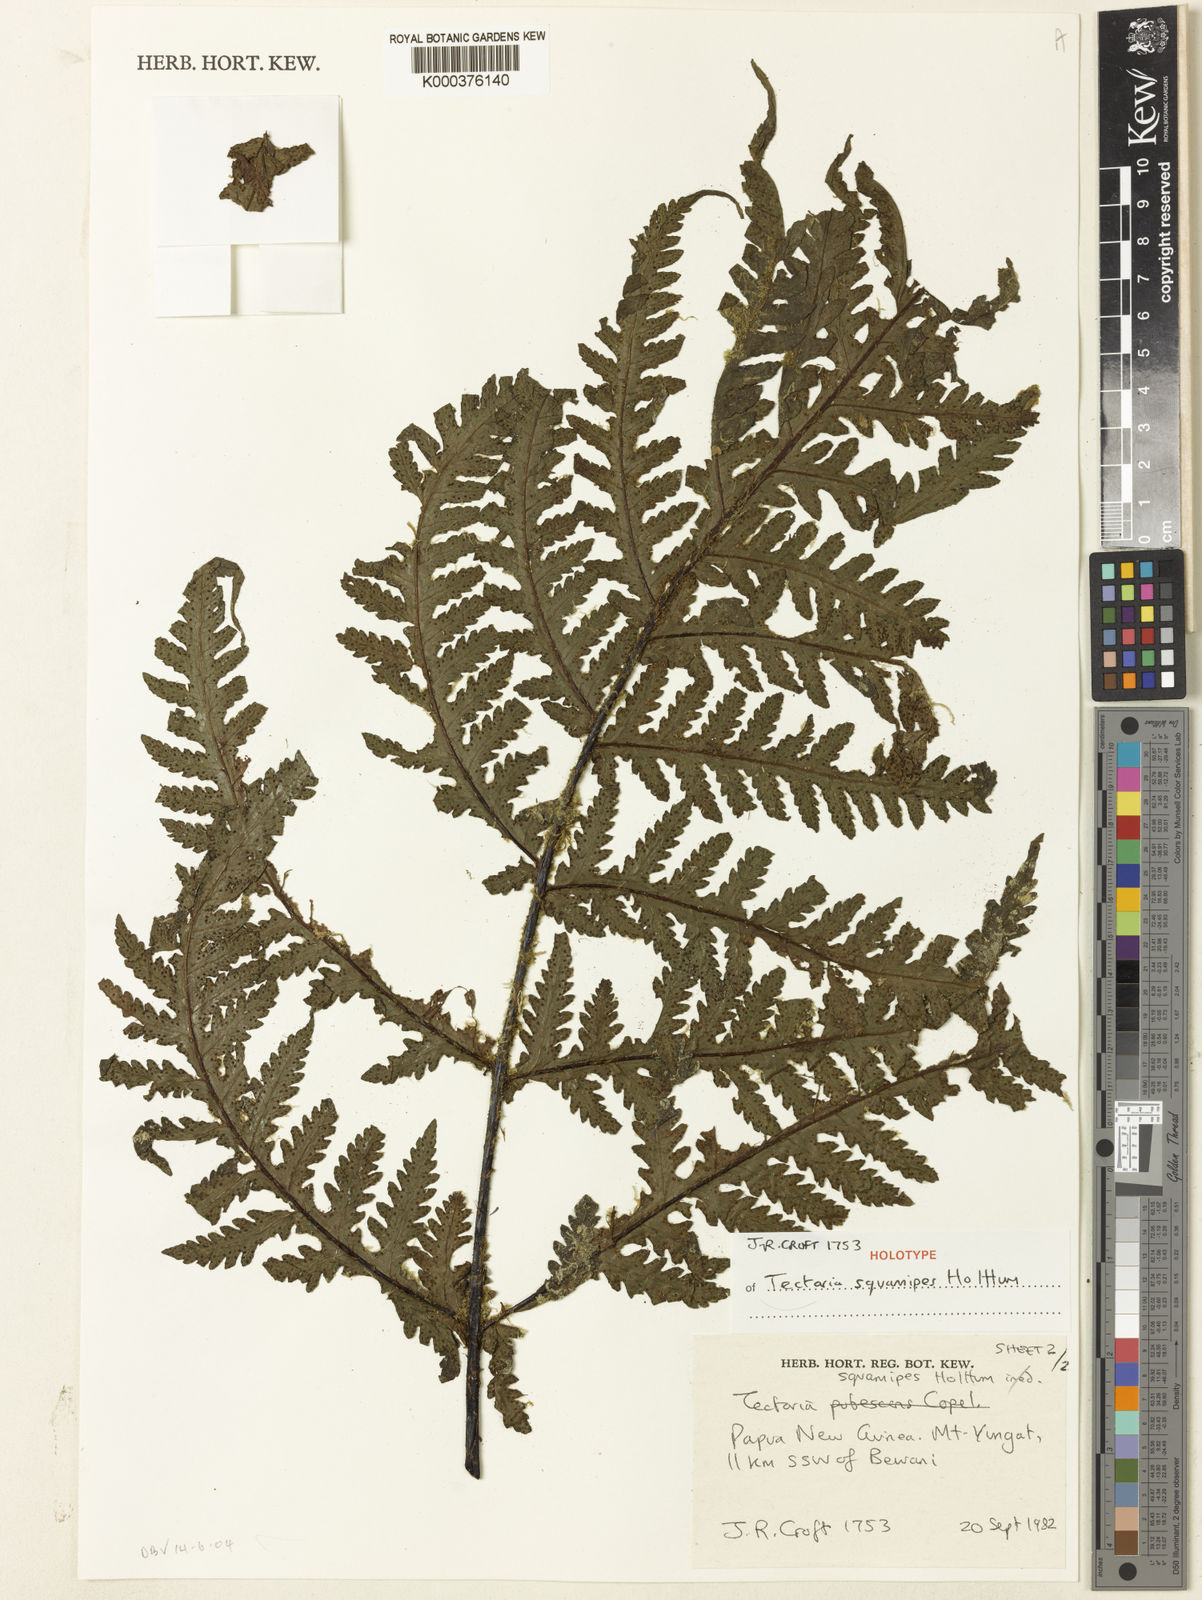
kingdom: Plantae
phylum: Tracheophyta
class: Polypodiopsida
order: Polypodiales
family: Tectariaceae
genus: Tectaria
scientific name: Tectaria squamipes
